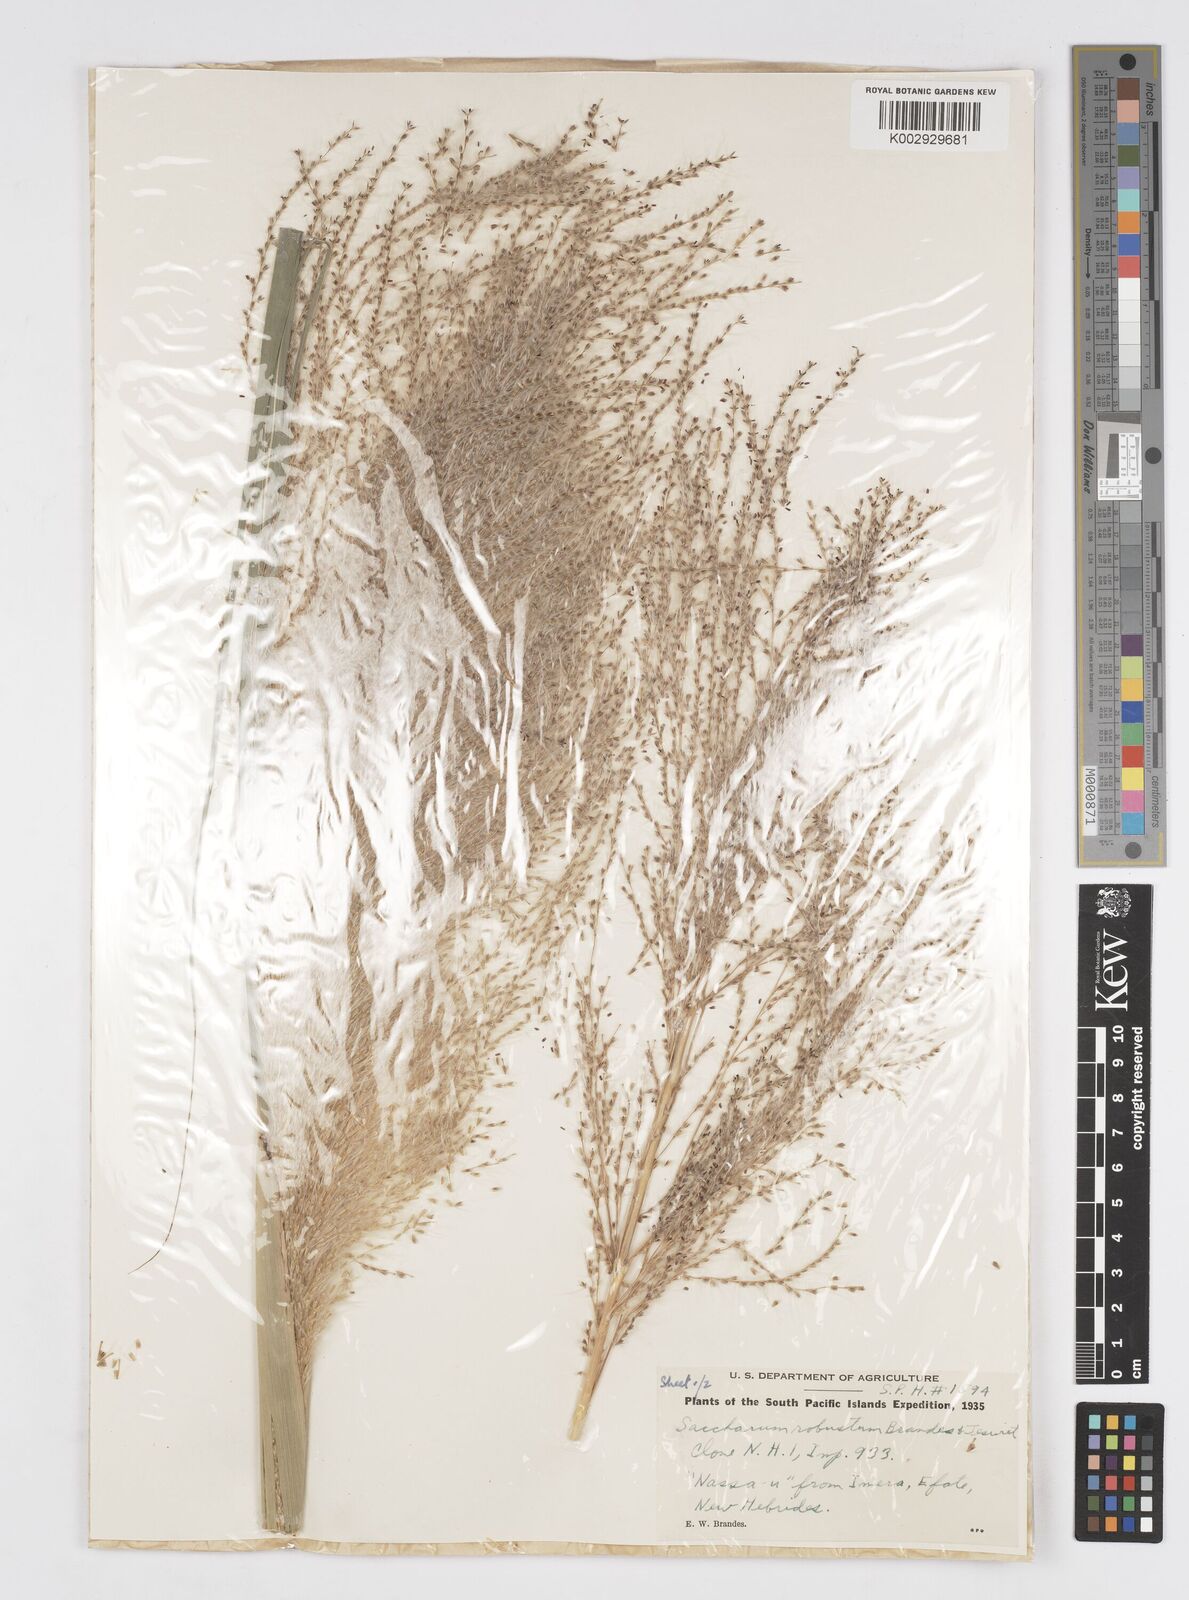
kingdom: Plantae
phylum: Tracheophyta
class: Liliopsida
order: Poales
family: Poaceae
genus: Saccharum
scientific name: Saccharum spontaneum
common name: Wild sugarcane
